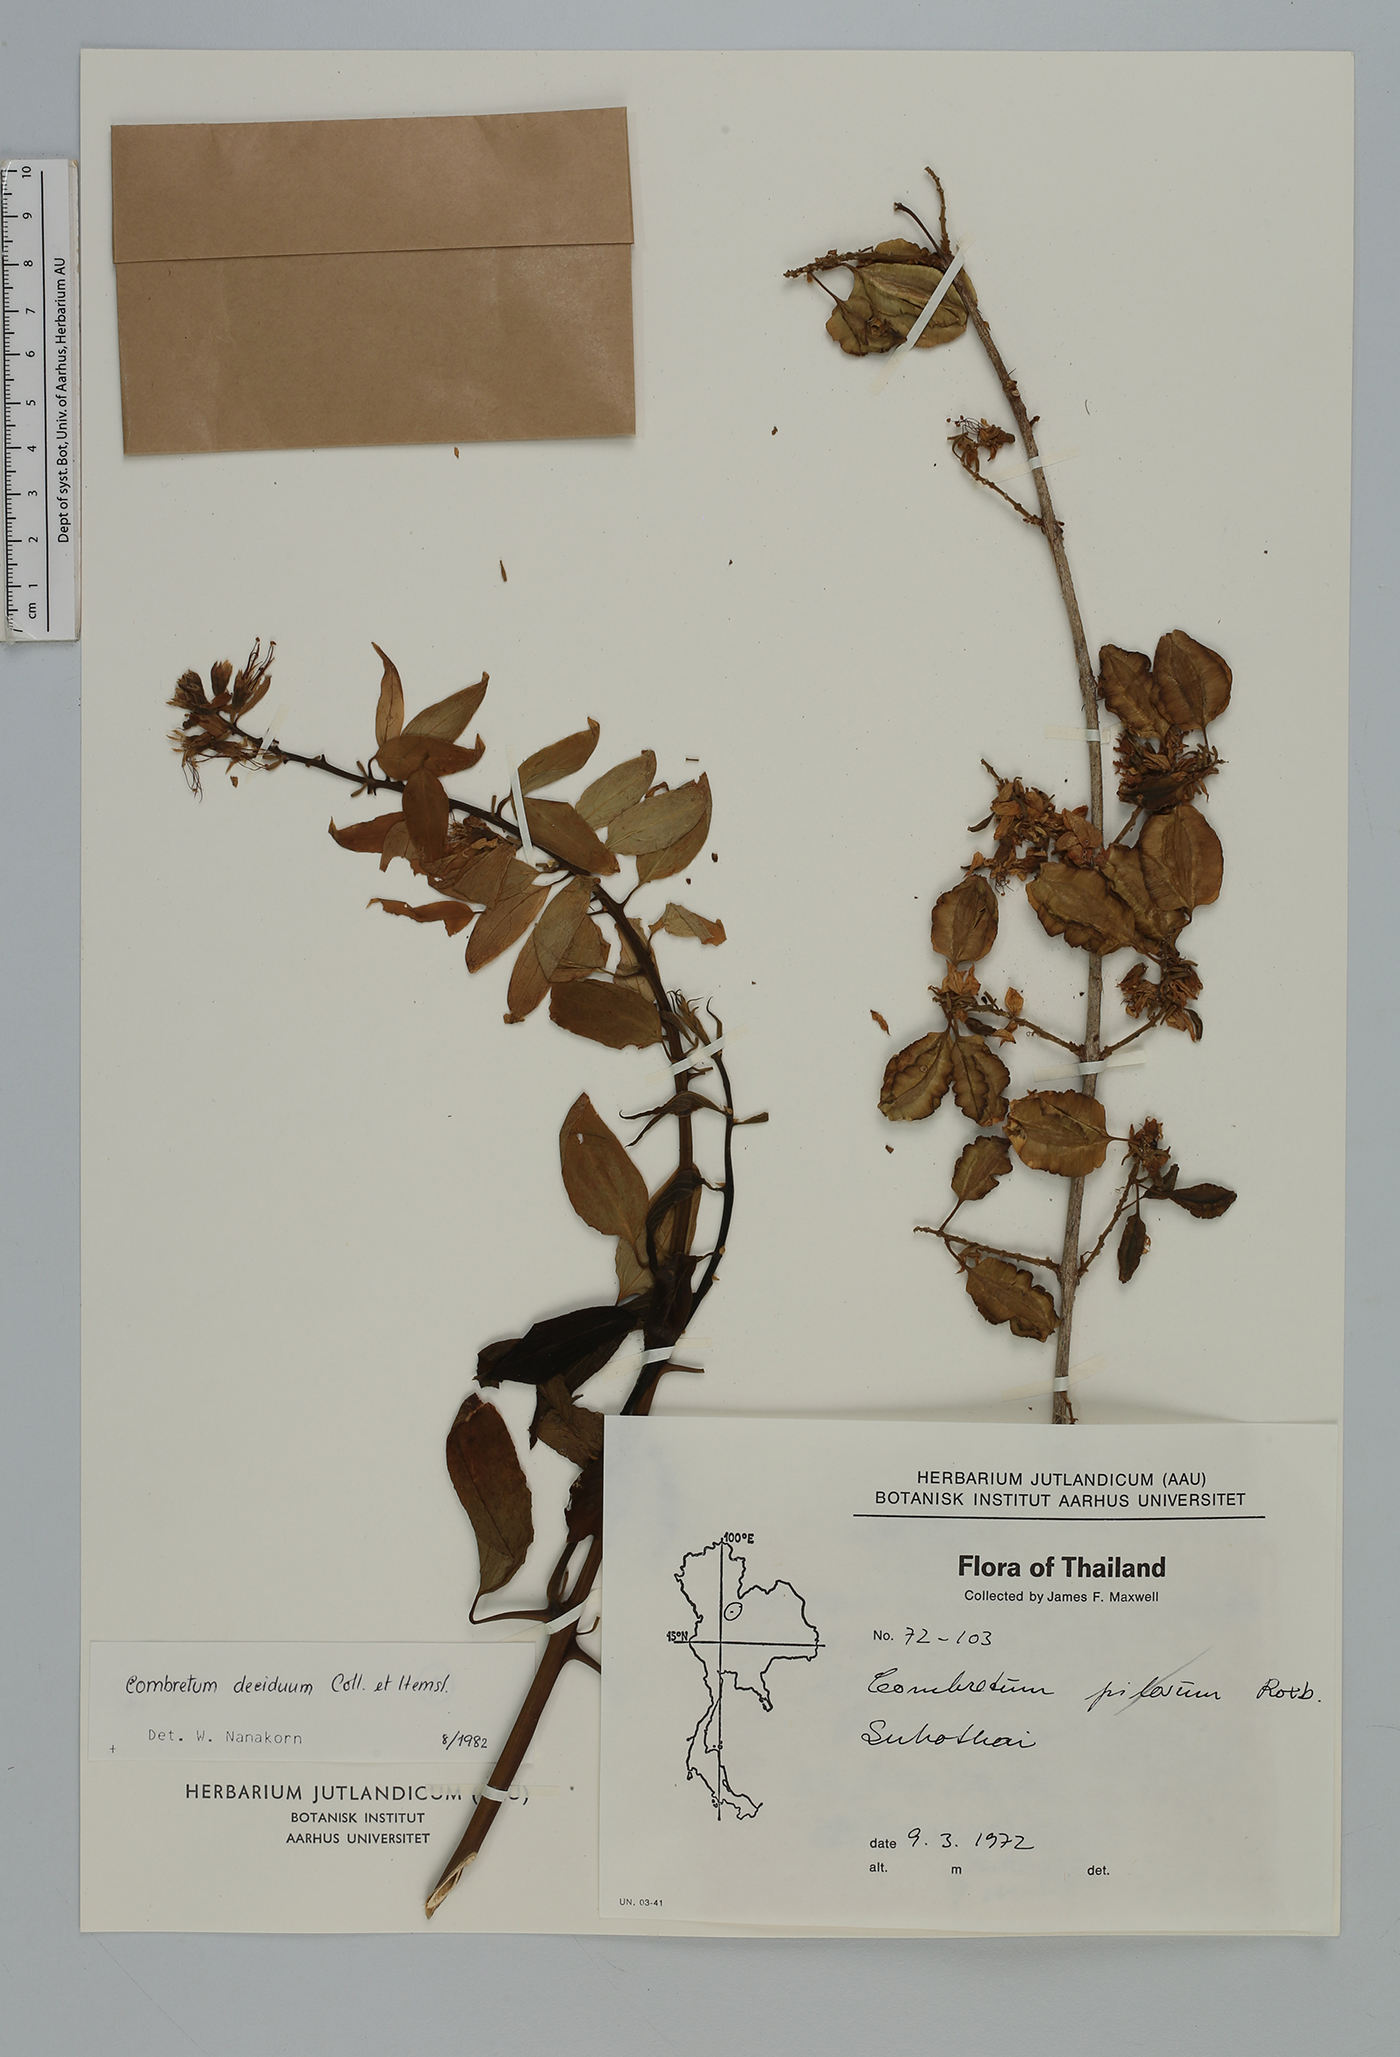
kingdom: Plantae
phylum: Tracheophyta
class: Magnoliopsida
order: Myrtales
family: Combretaceae
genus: Combretum
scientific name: Combretum deciduum
